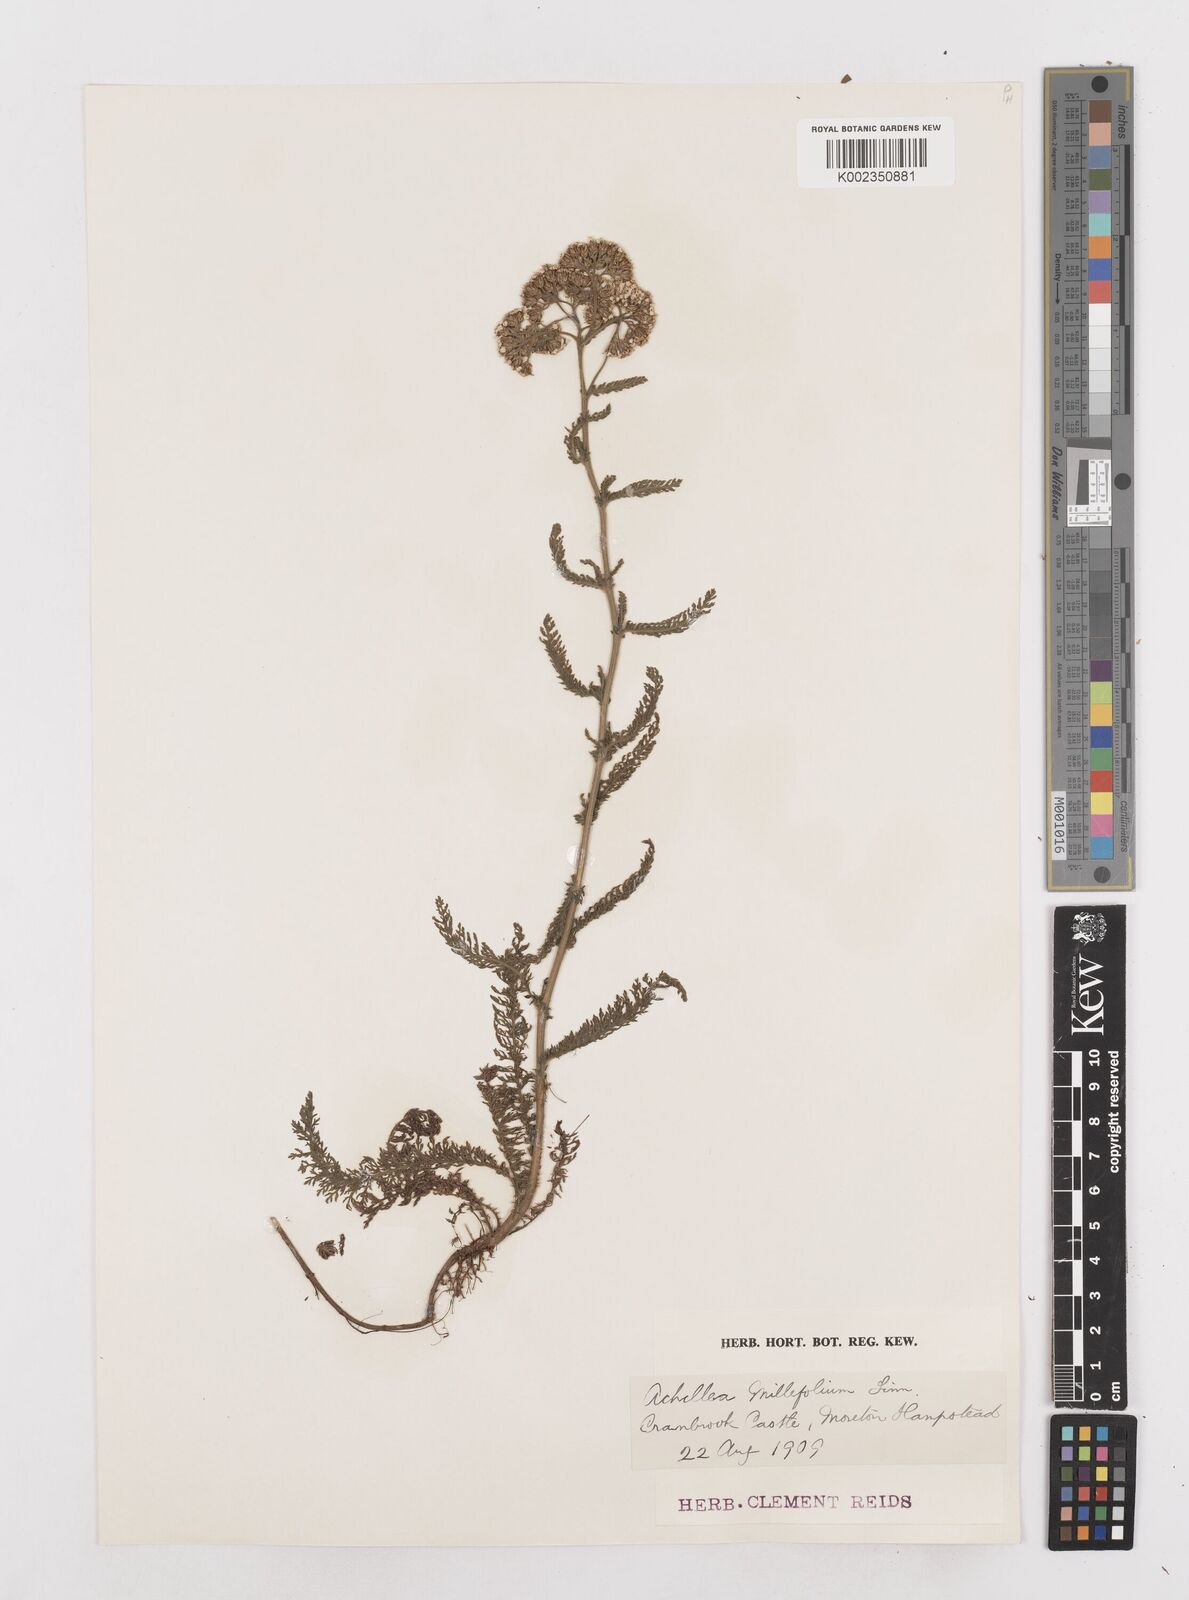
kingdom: Plantae
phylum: Tracheophyta
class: Magnoliopsida
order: Asterales
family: Asteraceae
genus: Achillea
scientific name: Achillea millefolium
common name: Yarrow
